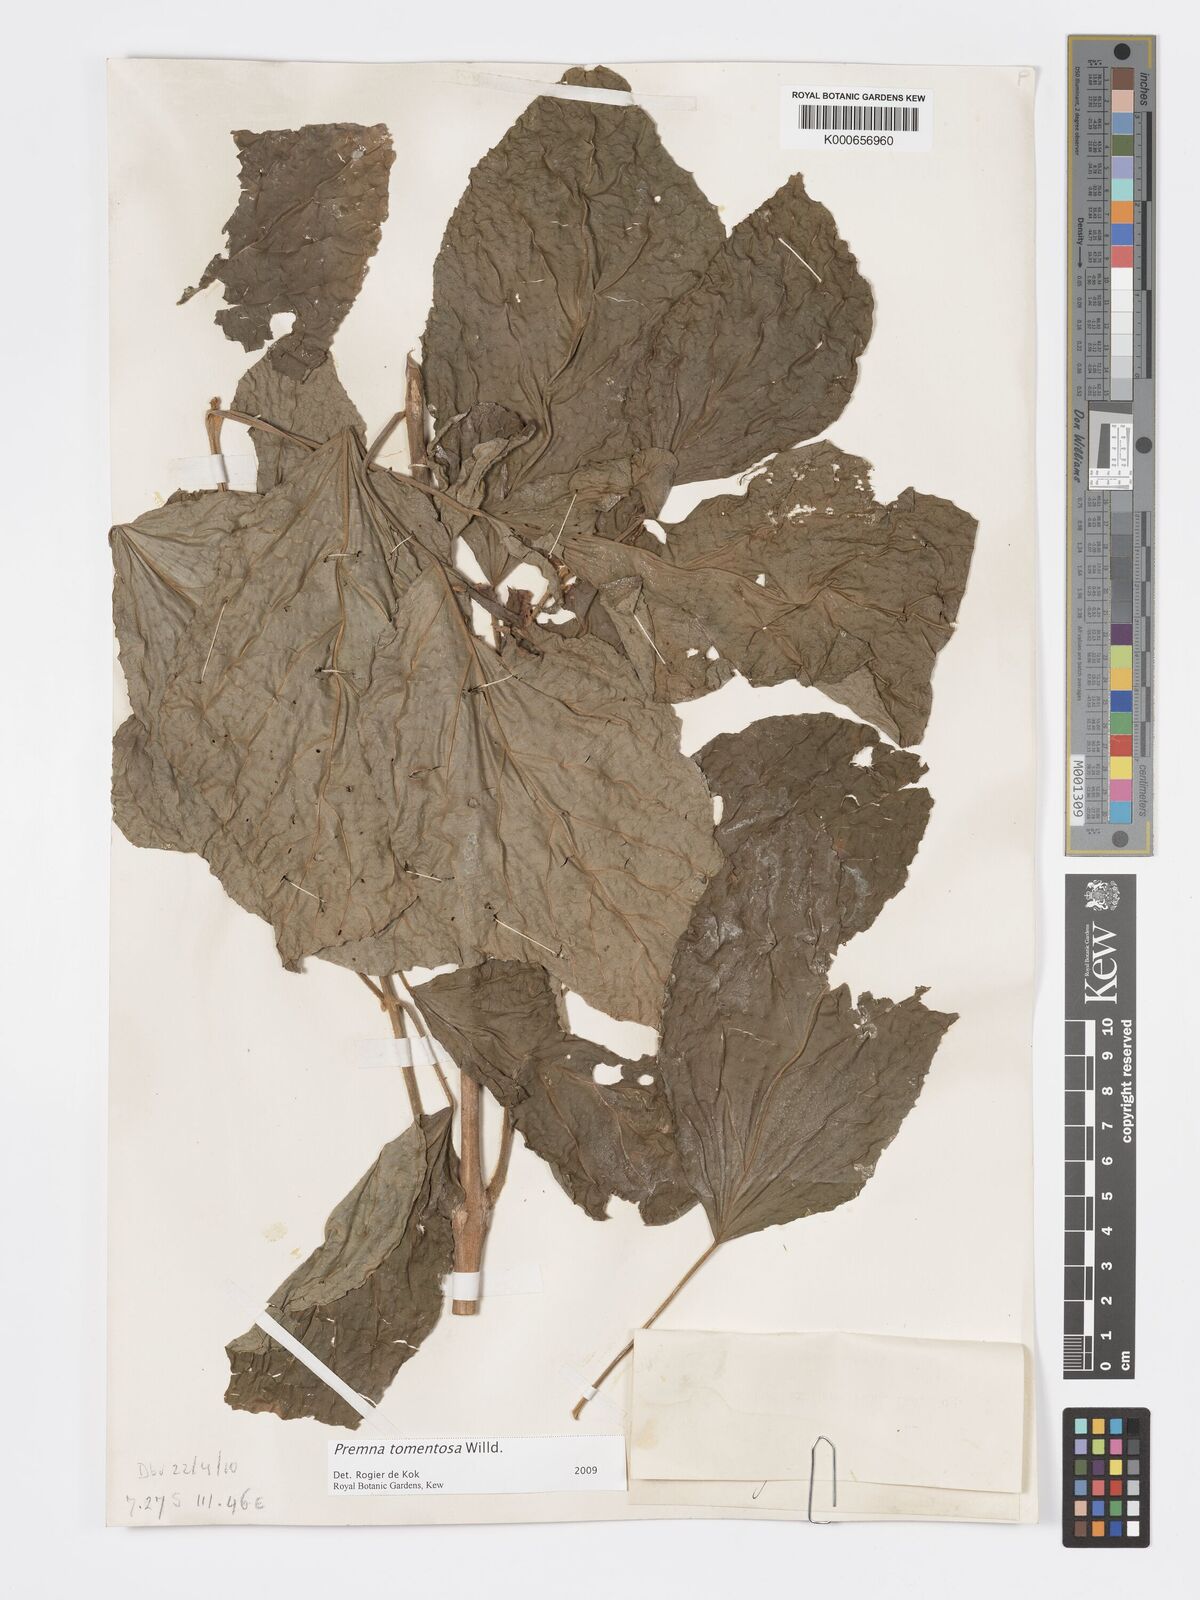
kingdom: Plantae
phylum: Tracheophyta
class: Magnoliopsida
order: Lamiales
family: Lamiaceae
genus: Premna
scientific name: Premna tomentosa
